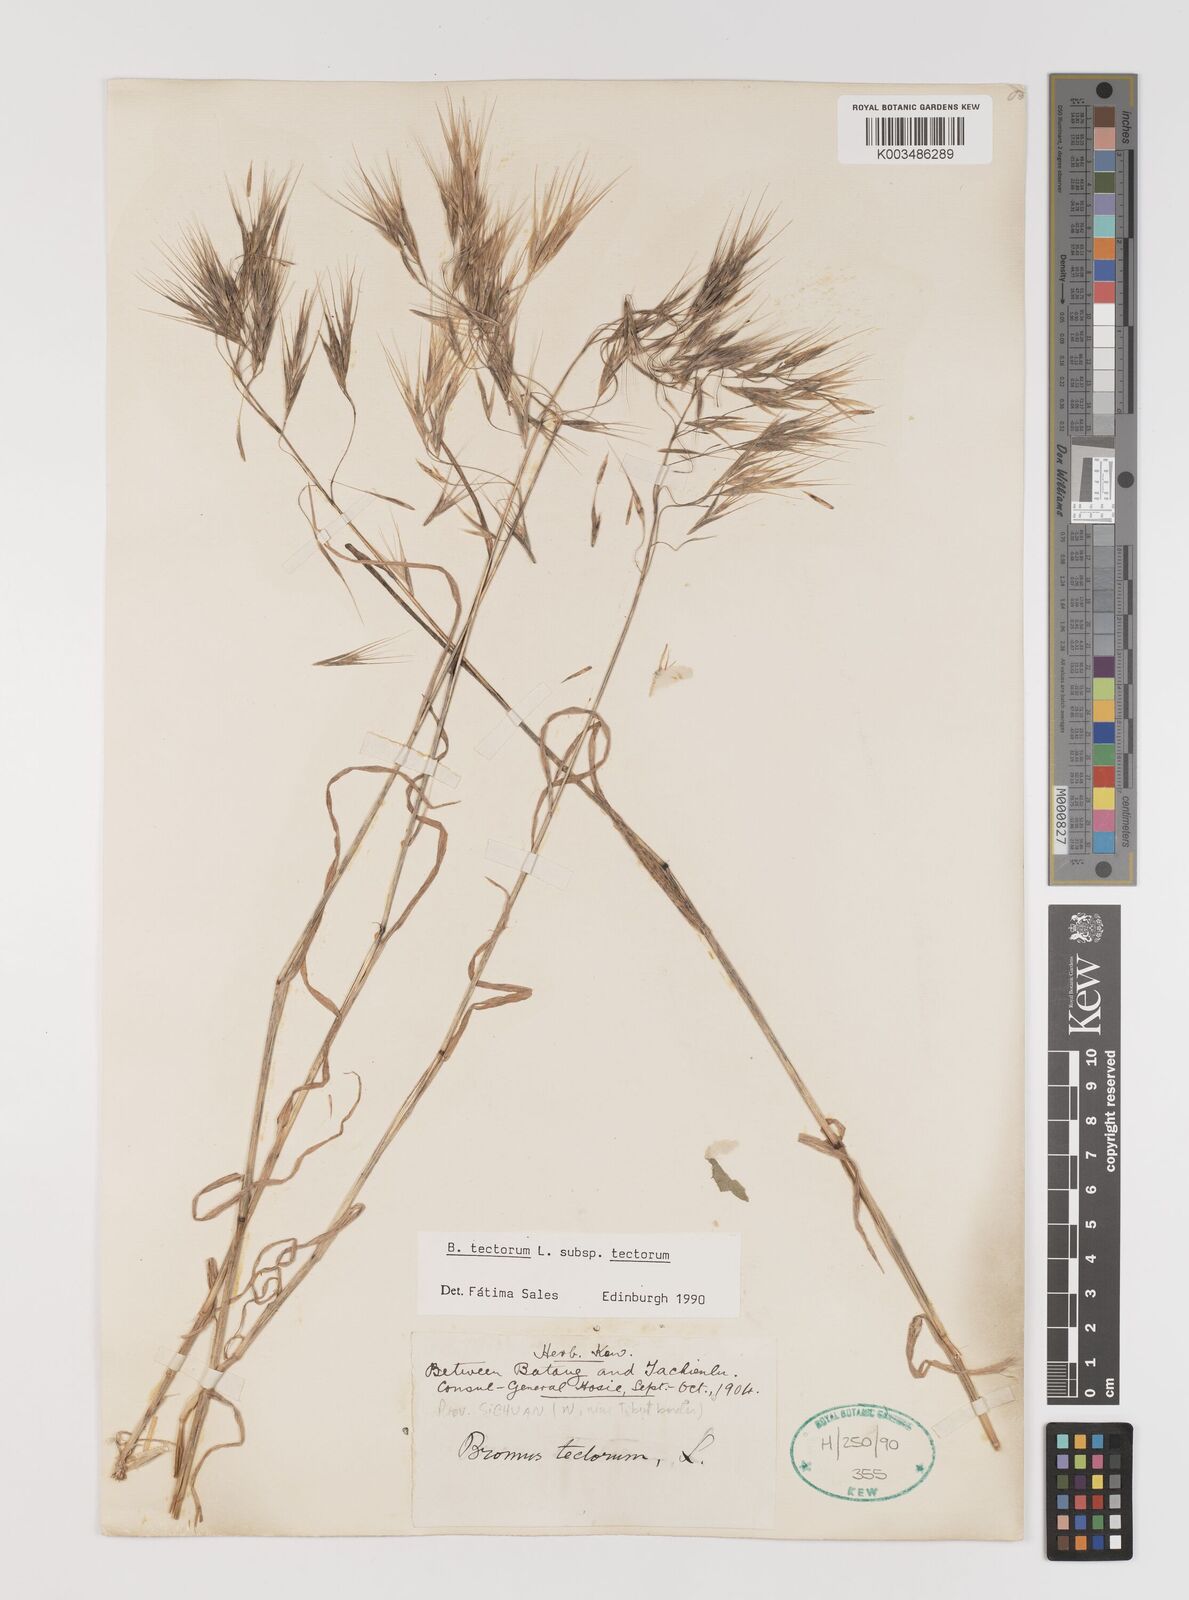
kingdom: Plantae
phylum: Tracheophyta
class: Liliopsida
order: Poales
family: Poaceae
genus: Bromus
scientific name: Bromus tectorum
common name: Cheatgrass
